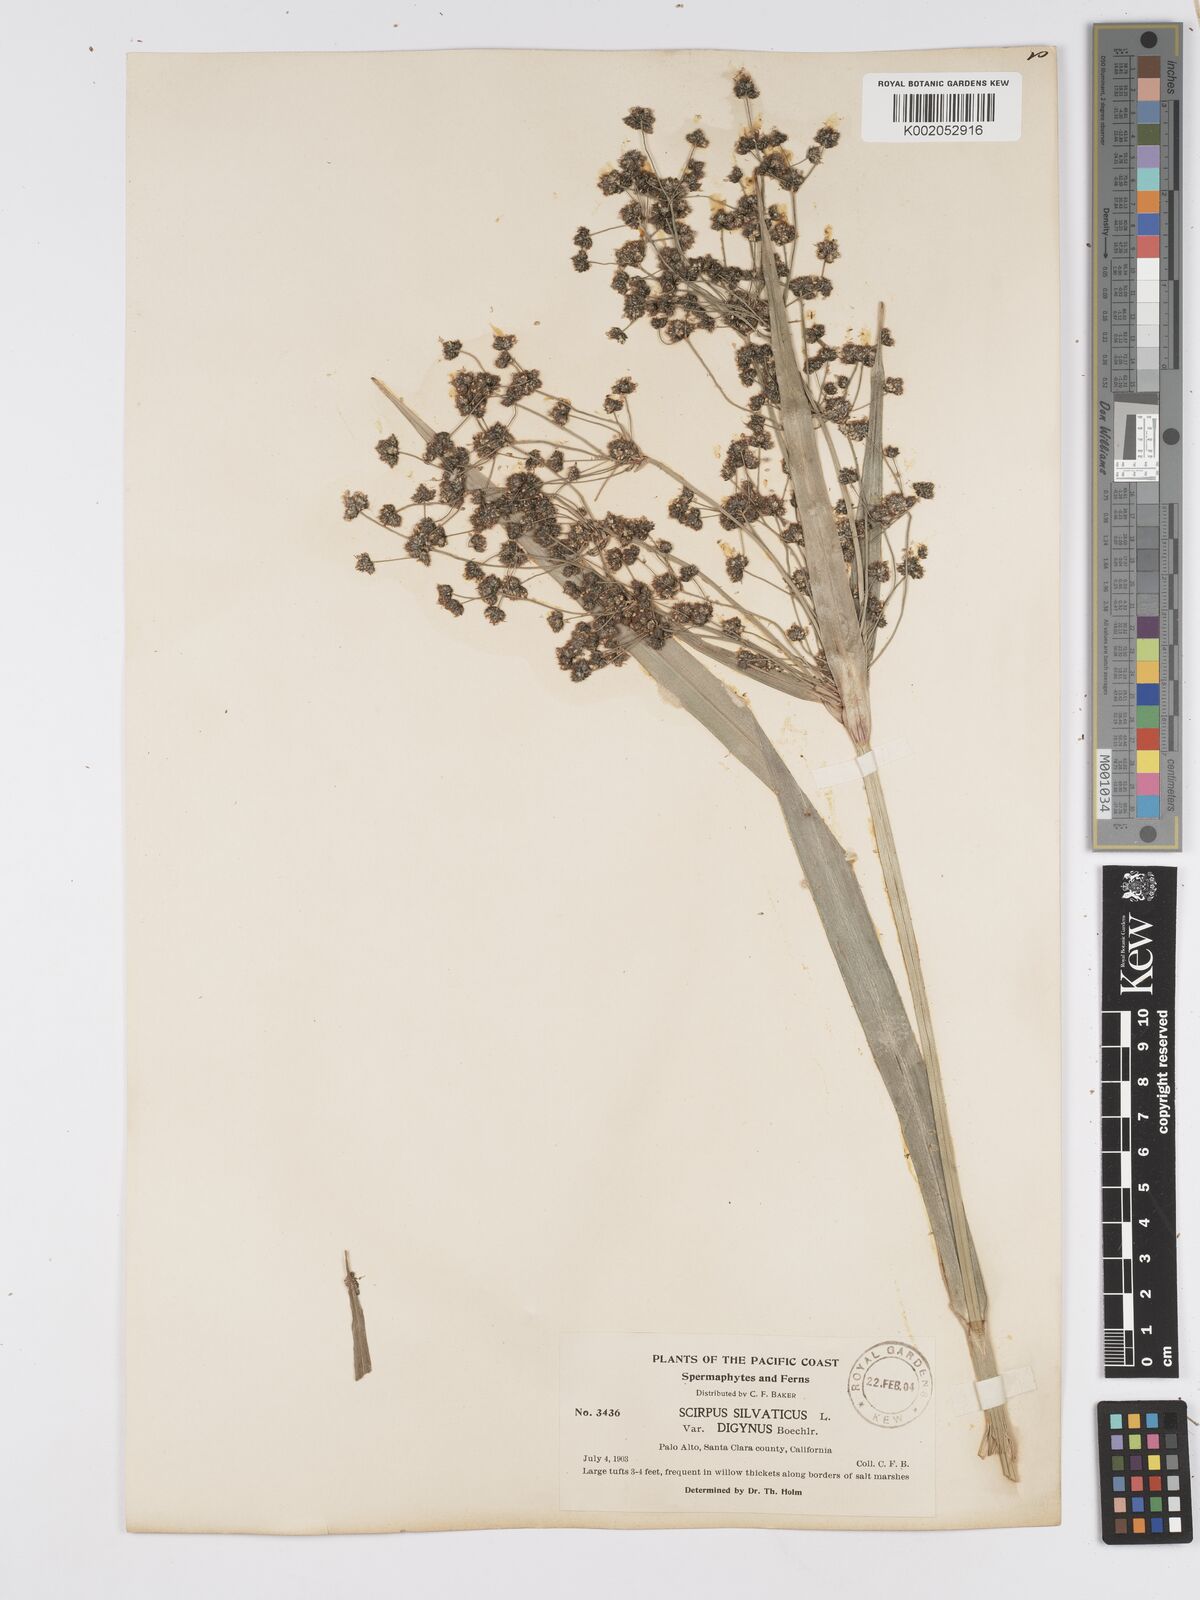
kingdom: Plantae
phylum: Tracheophyta
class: Liliopsida
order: Poales
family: Cyperaceae
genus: Scirpus
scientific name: Scirpus sylvaticus
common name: Wood club-rush
